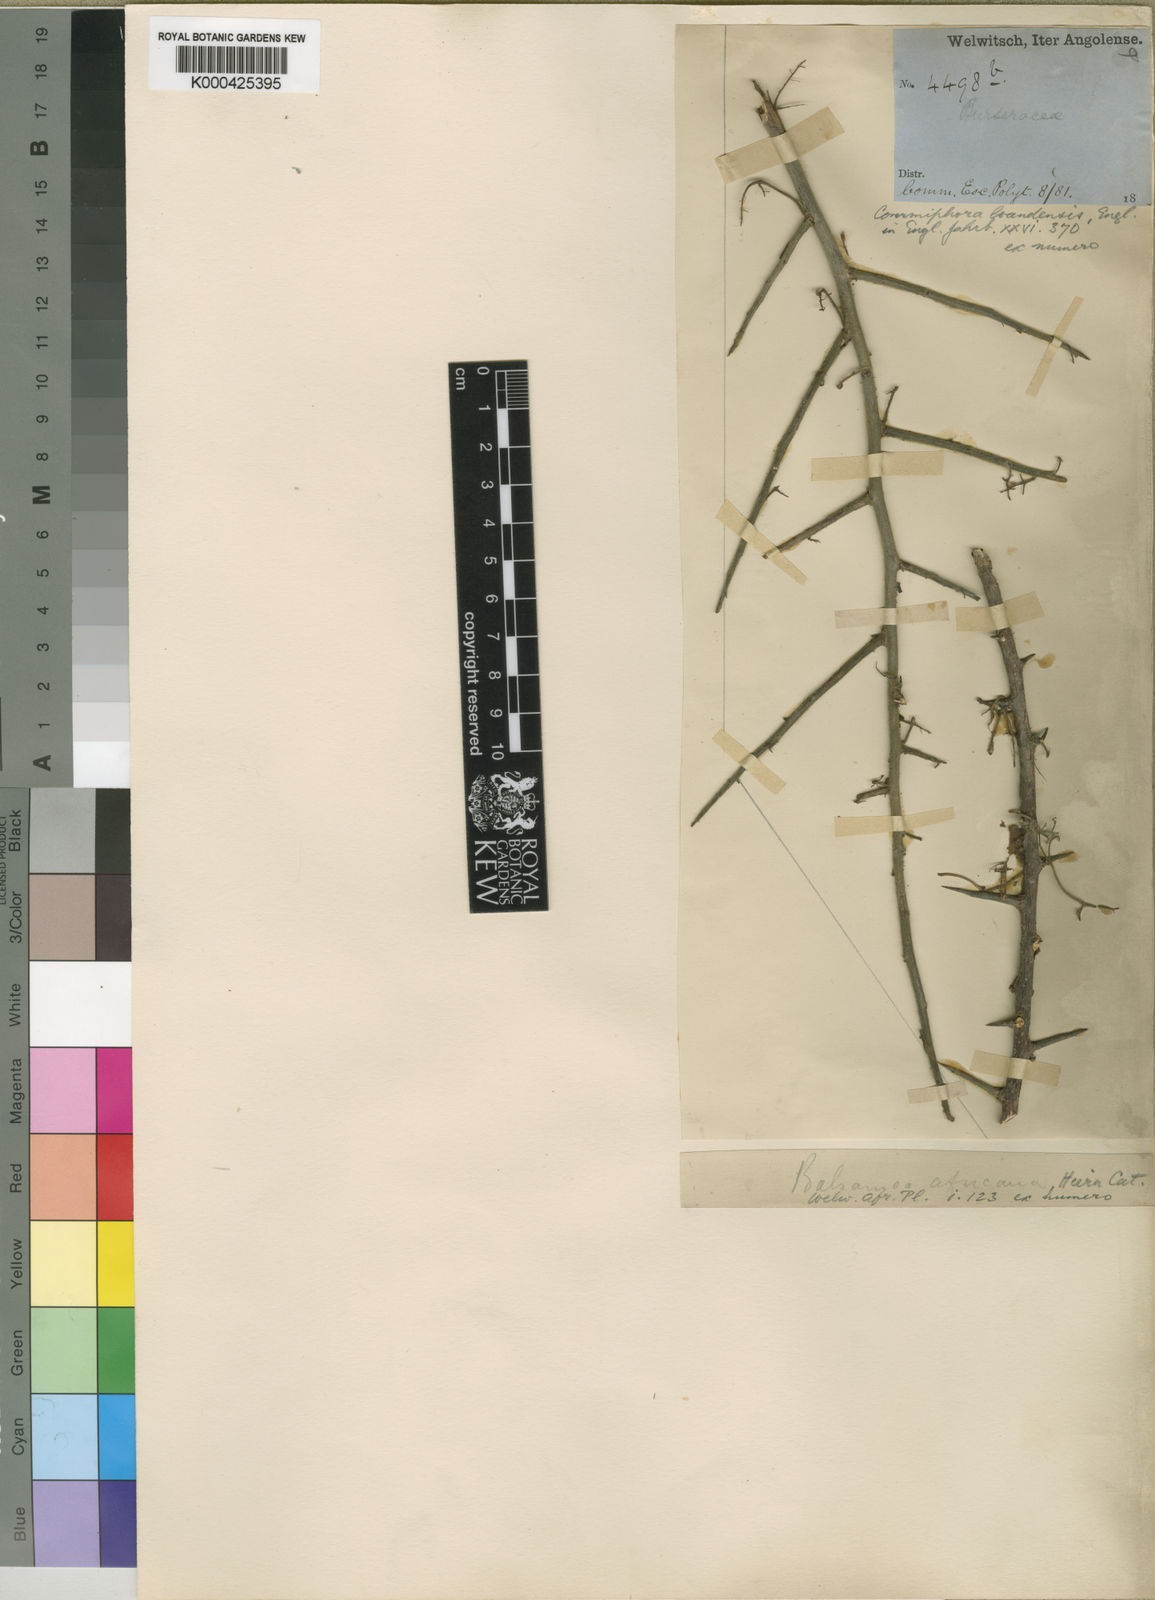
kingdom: Plantae
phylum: Tracheophyta
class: Magnoliopsida
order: Sapindales
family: Burseraceae
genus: Commiphora
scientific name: Commiphora africana
